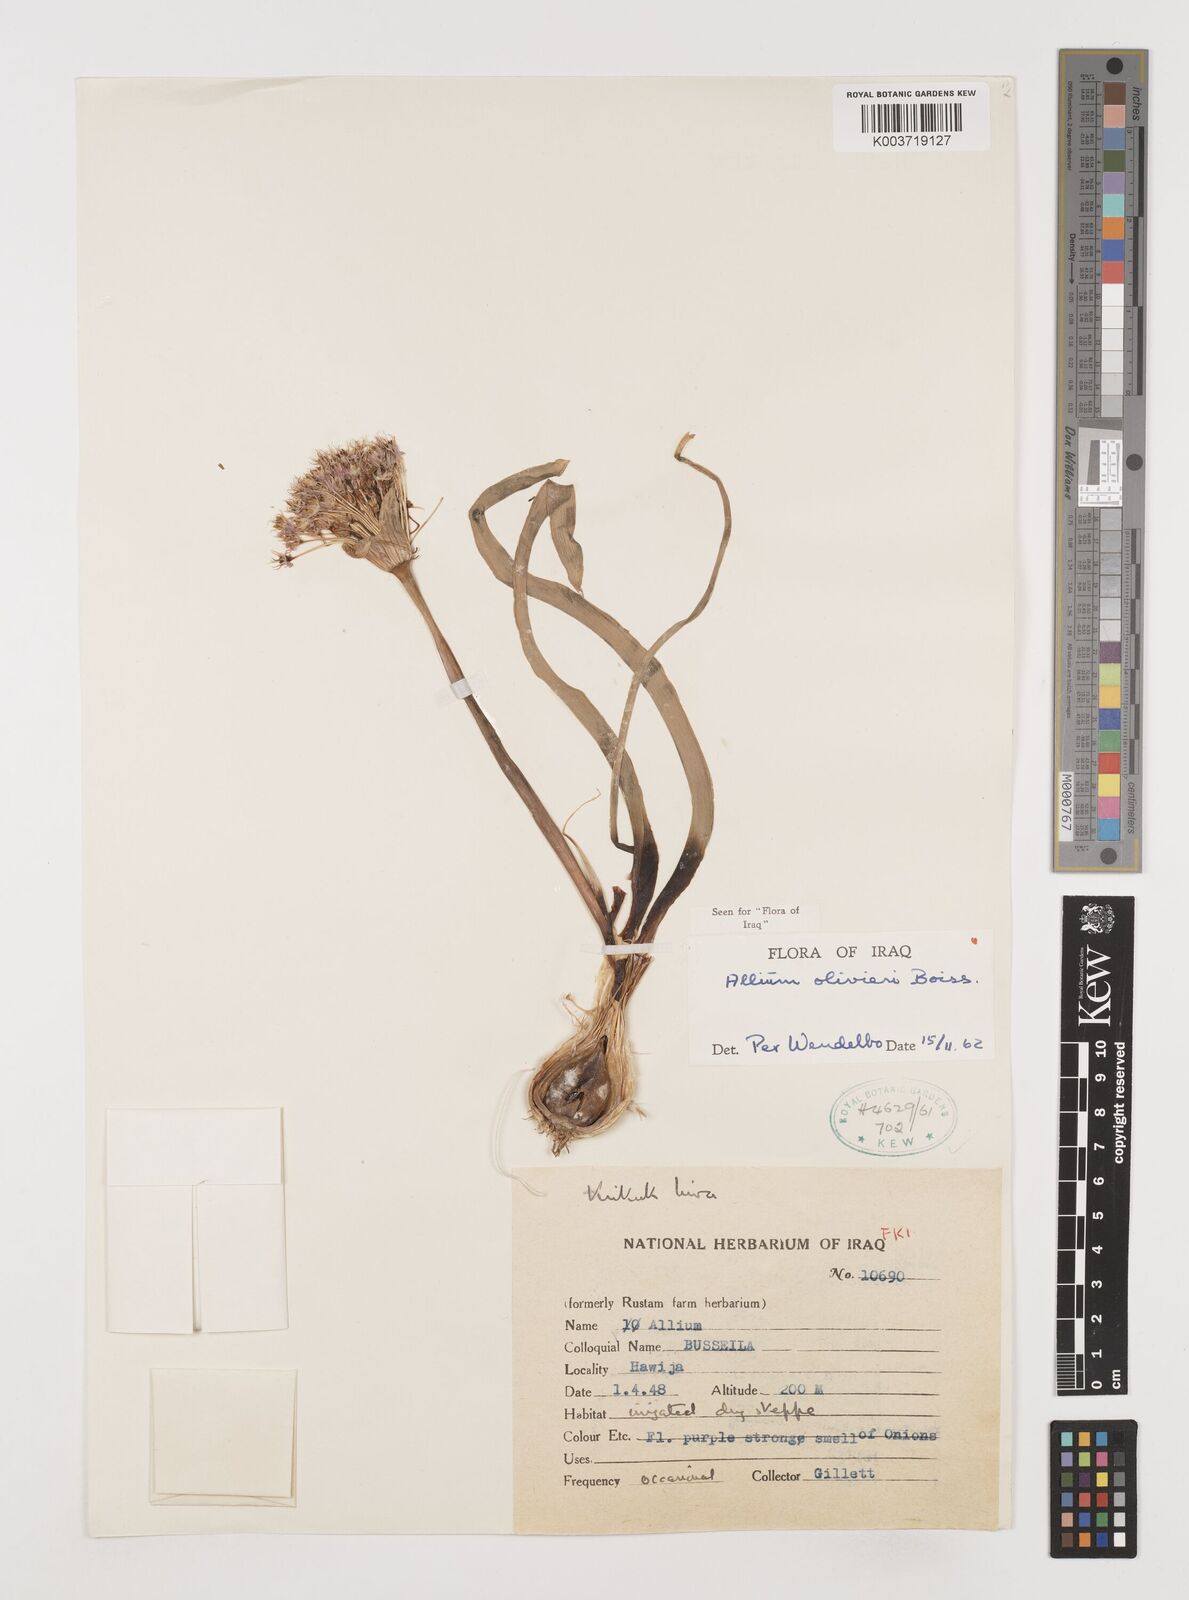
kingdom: Plantae
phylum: Tracheophyta
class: Liliopsida
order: Asparagales
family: Amaryllidaceae
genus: Allium
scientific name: Allium olivieri
